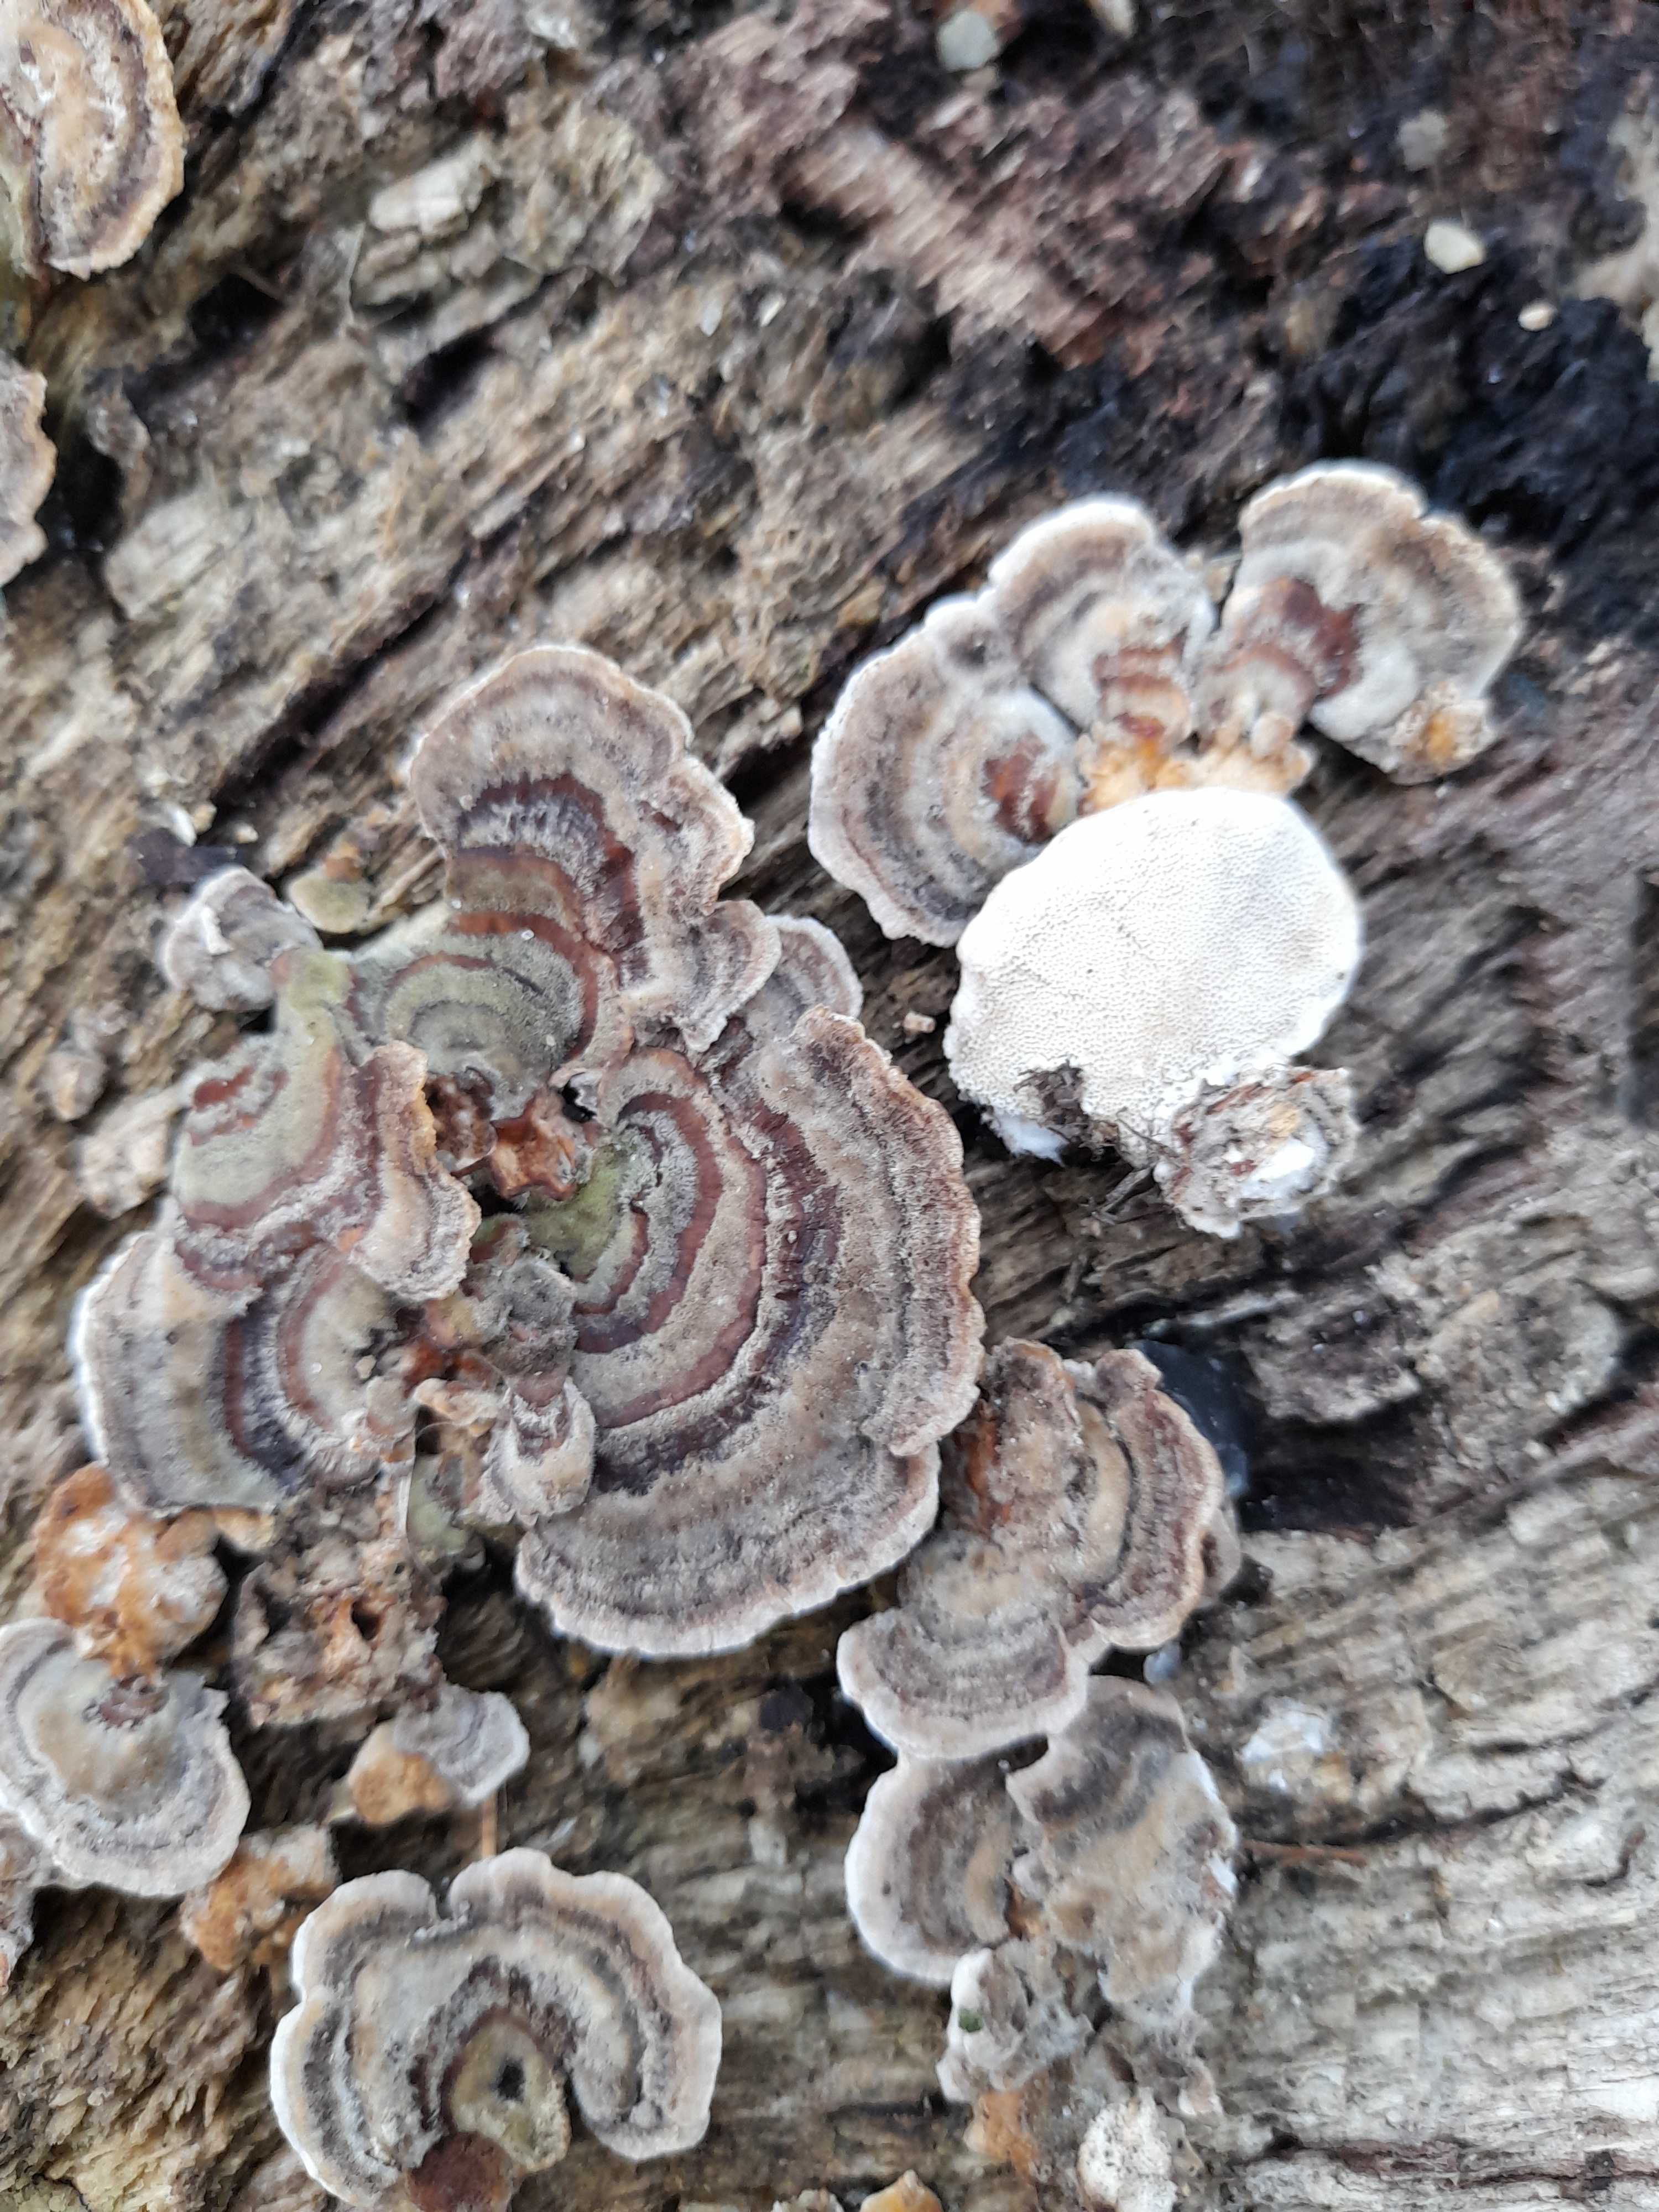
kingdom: Fungi
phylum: Basidiomycota
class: Agaricomycetes
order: Polyporales
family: Polyporaceae
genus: Trametes
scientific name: Trametes versicolor
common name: broget læderporesvamp
